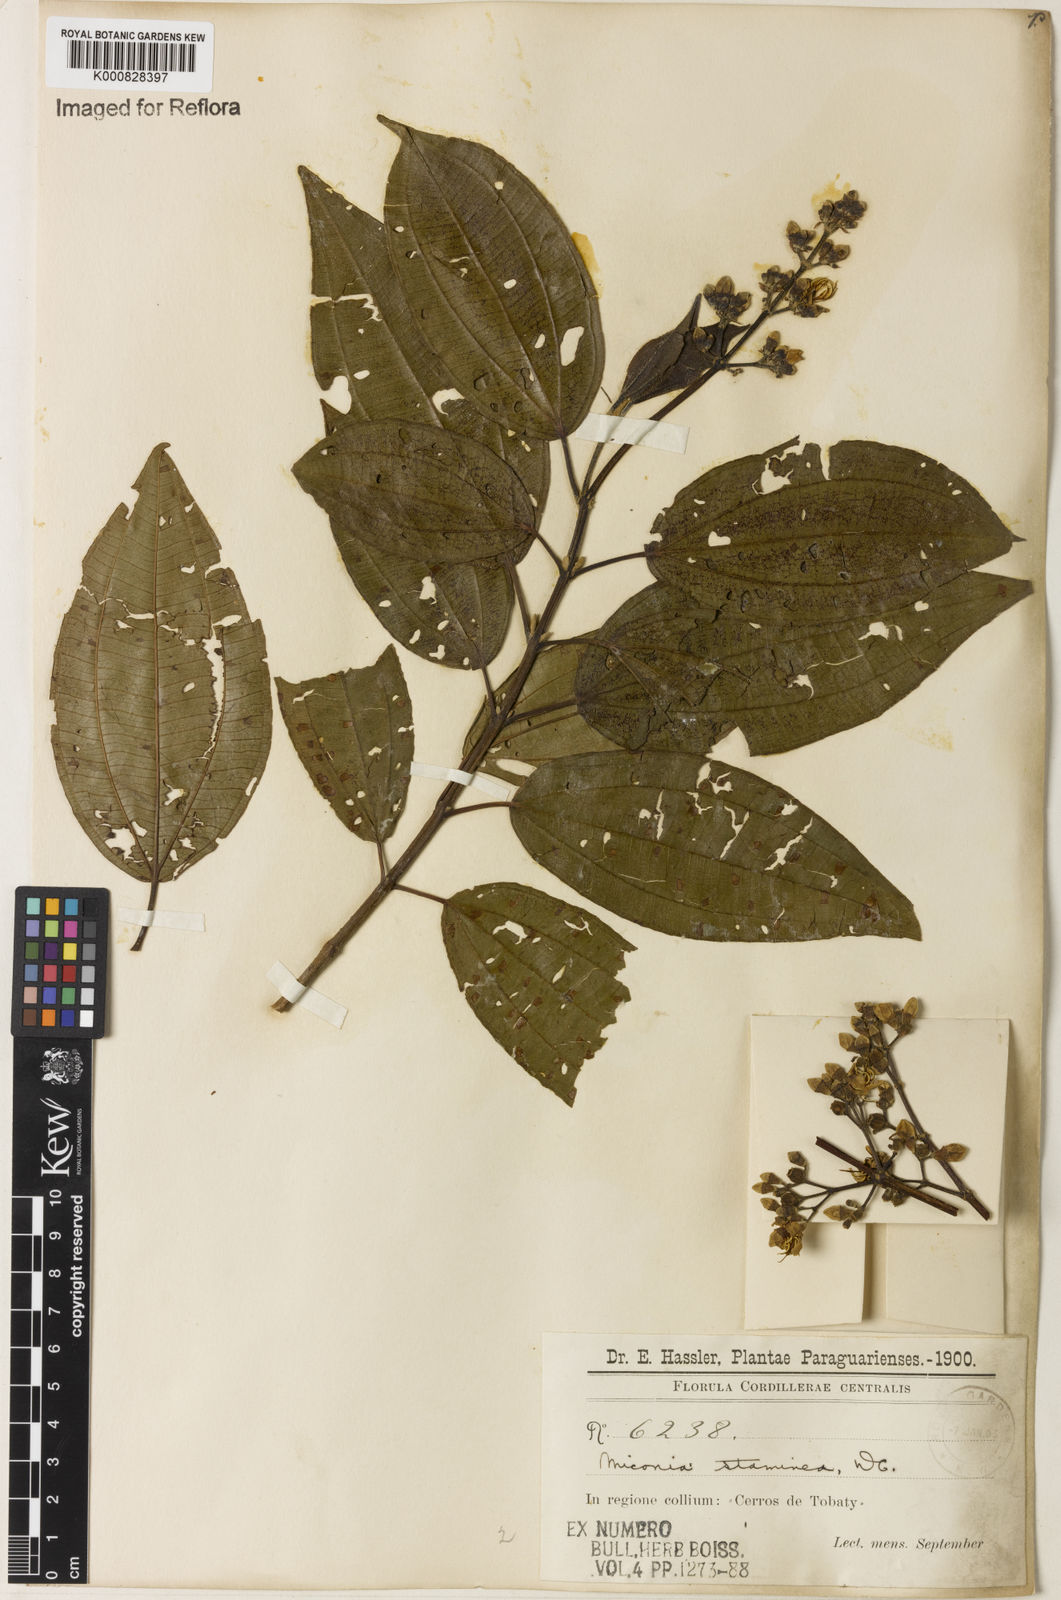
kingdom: Plantae
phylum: Tracheophyta
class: Magnoliopsida
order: Myrtales
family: Melastomataceae
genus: Miconia
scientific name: Miconia staminea
